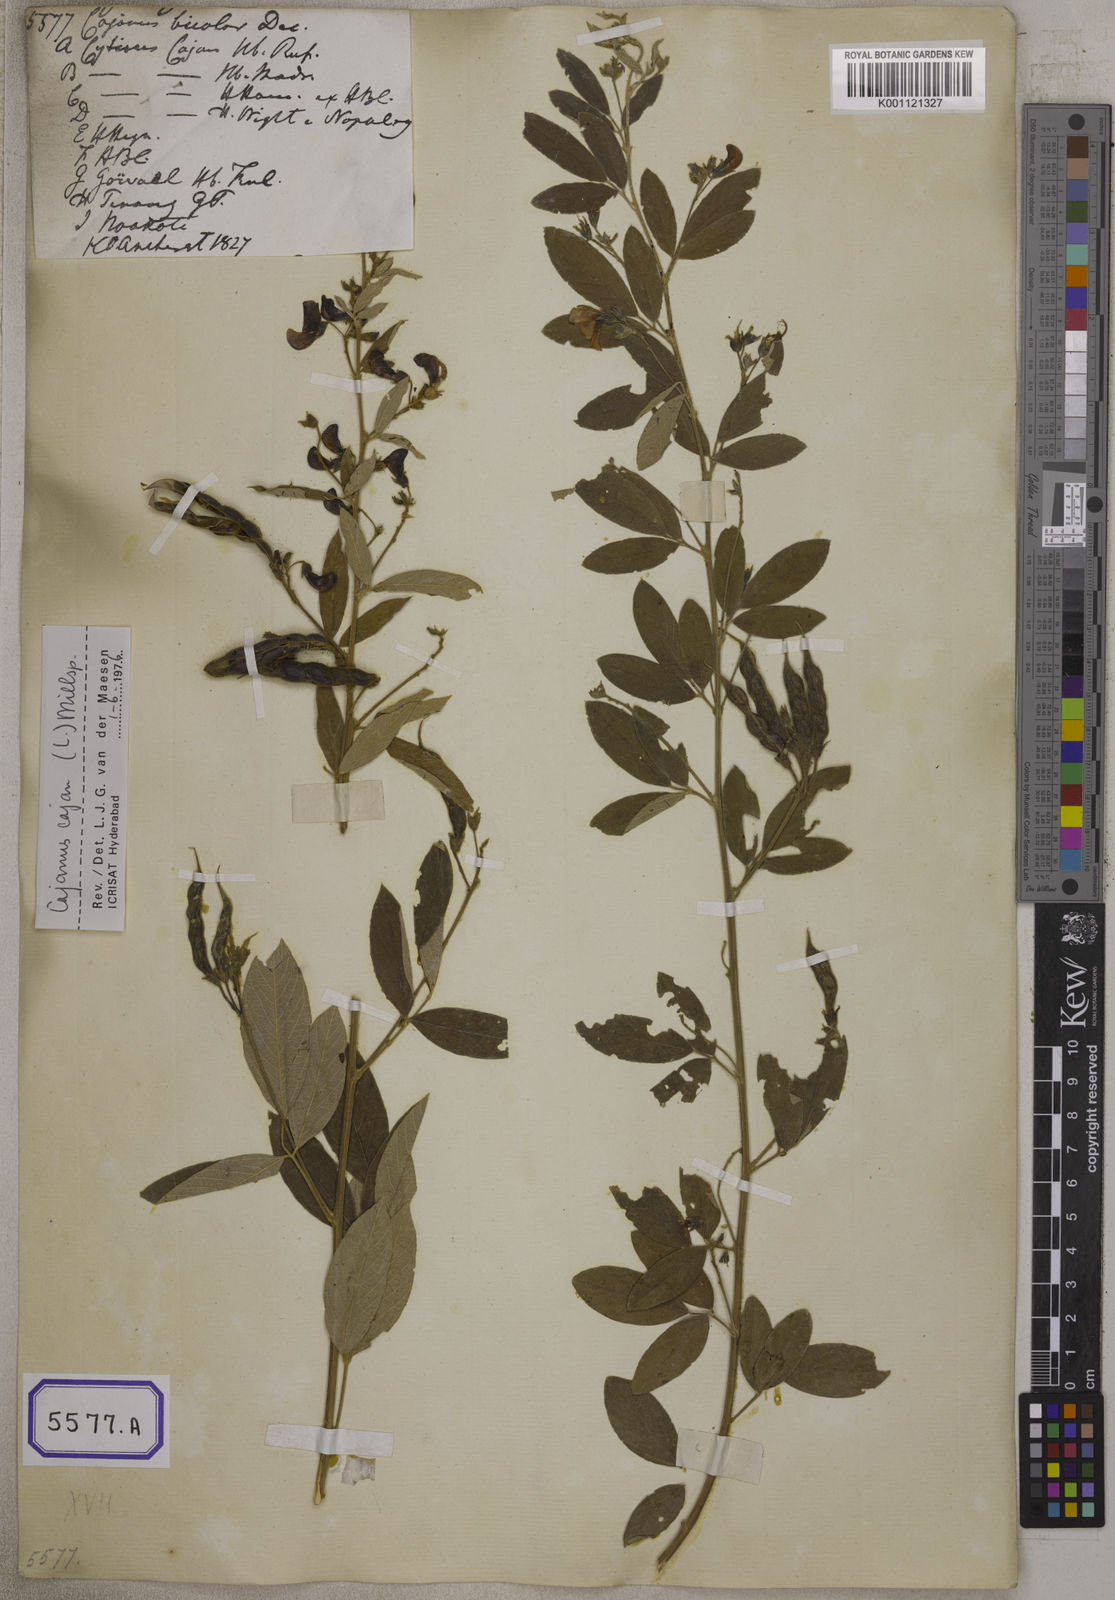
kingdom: Plantae
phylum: Tracheophyta
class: Magnoliopsida
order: Fabales
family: Fabaceae
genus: Cajanus
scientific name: Cajanus cajan
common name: Pigeonpea
